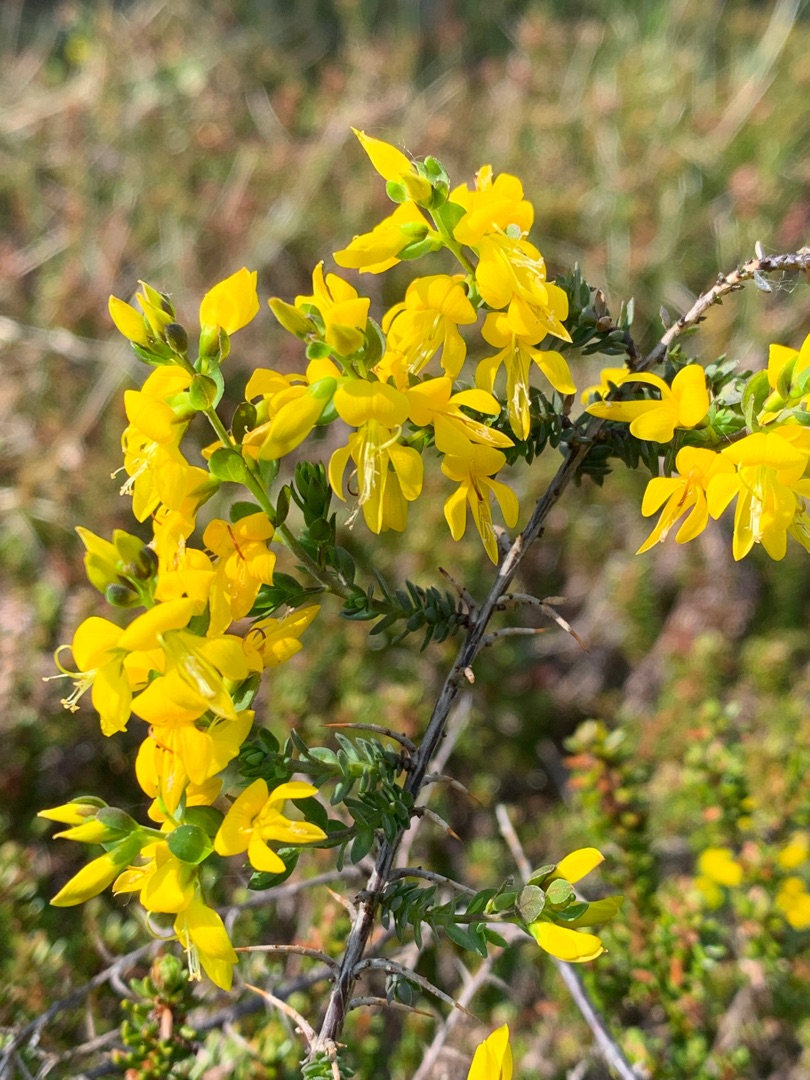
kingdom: Plantae
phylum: Tracheophyta
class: Magnoliopsida
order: Fabales
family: Fabaceae
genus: Genista
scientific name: Genista anglica
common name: Engelsk visse
